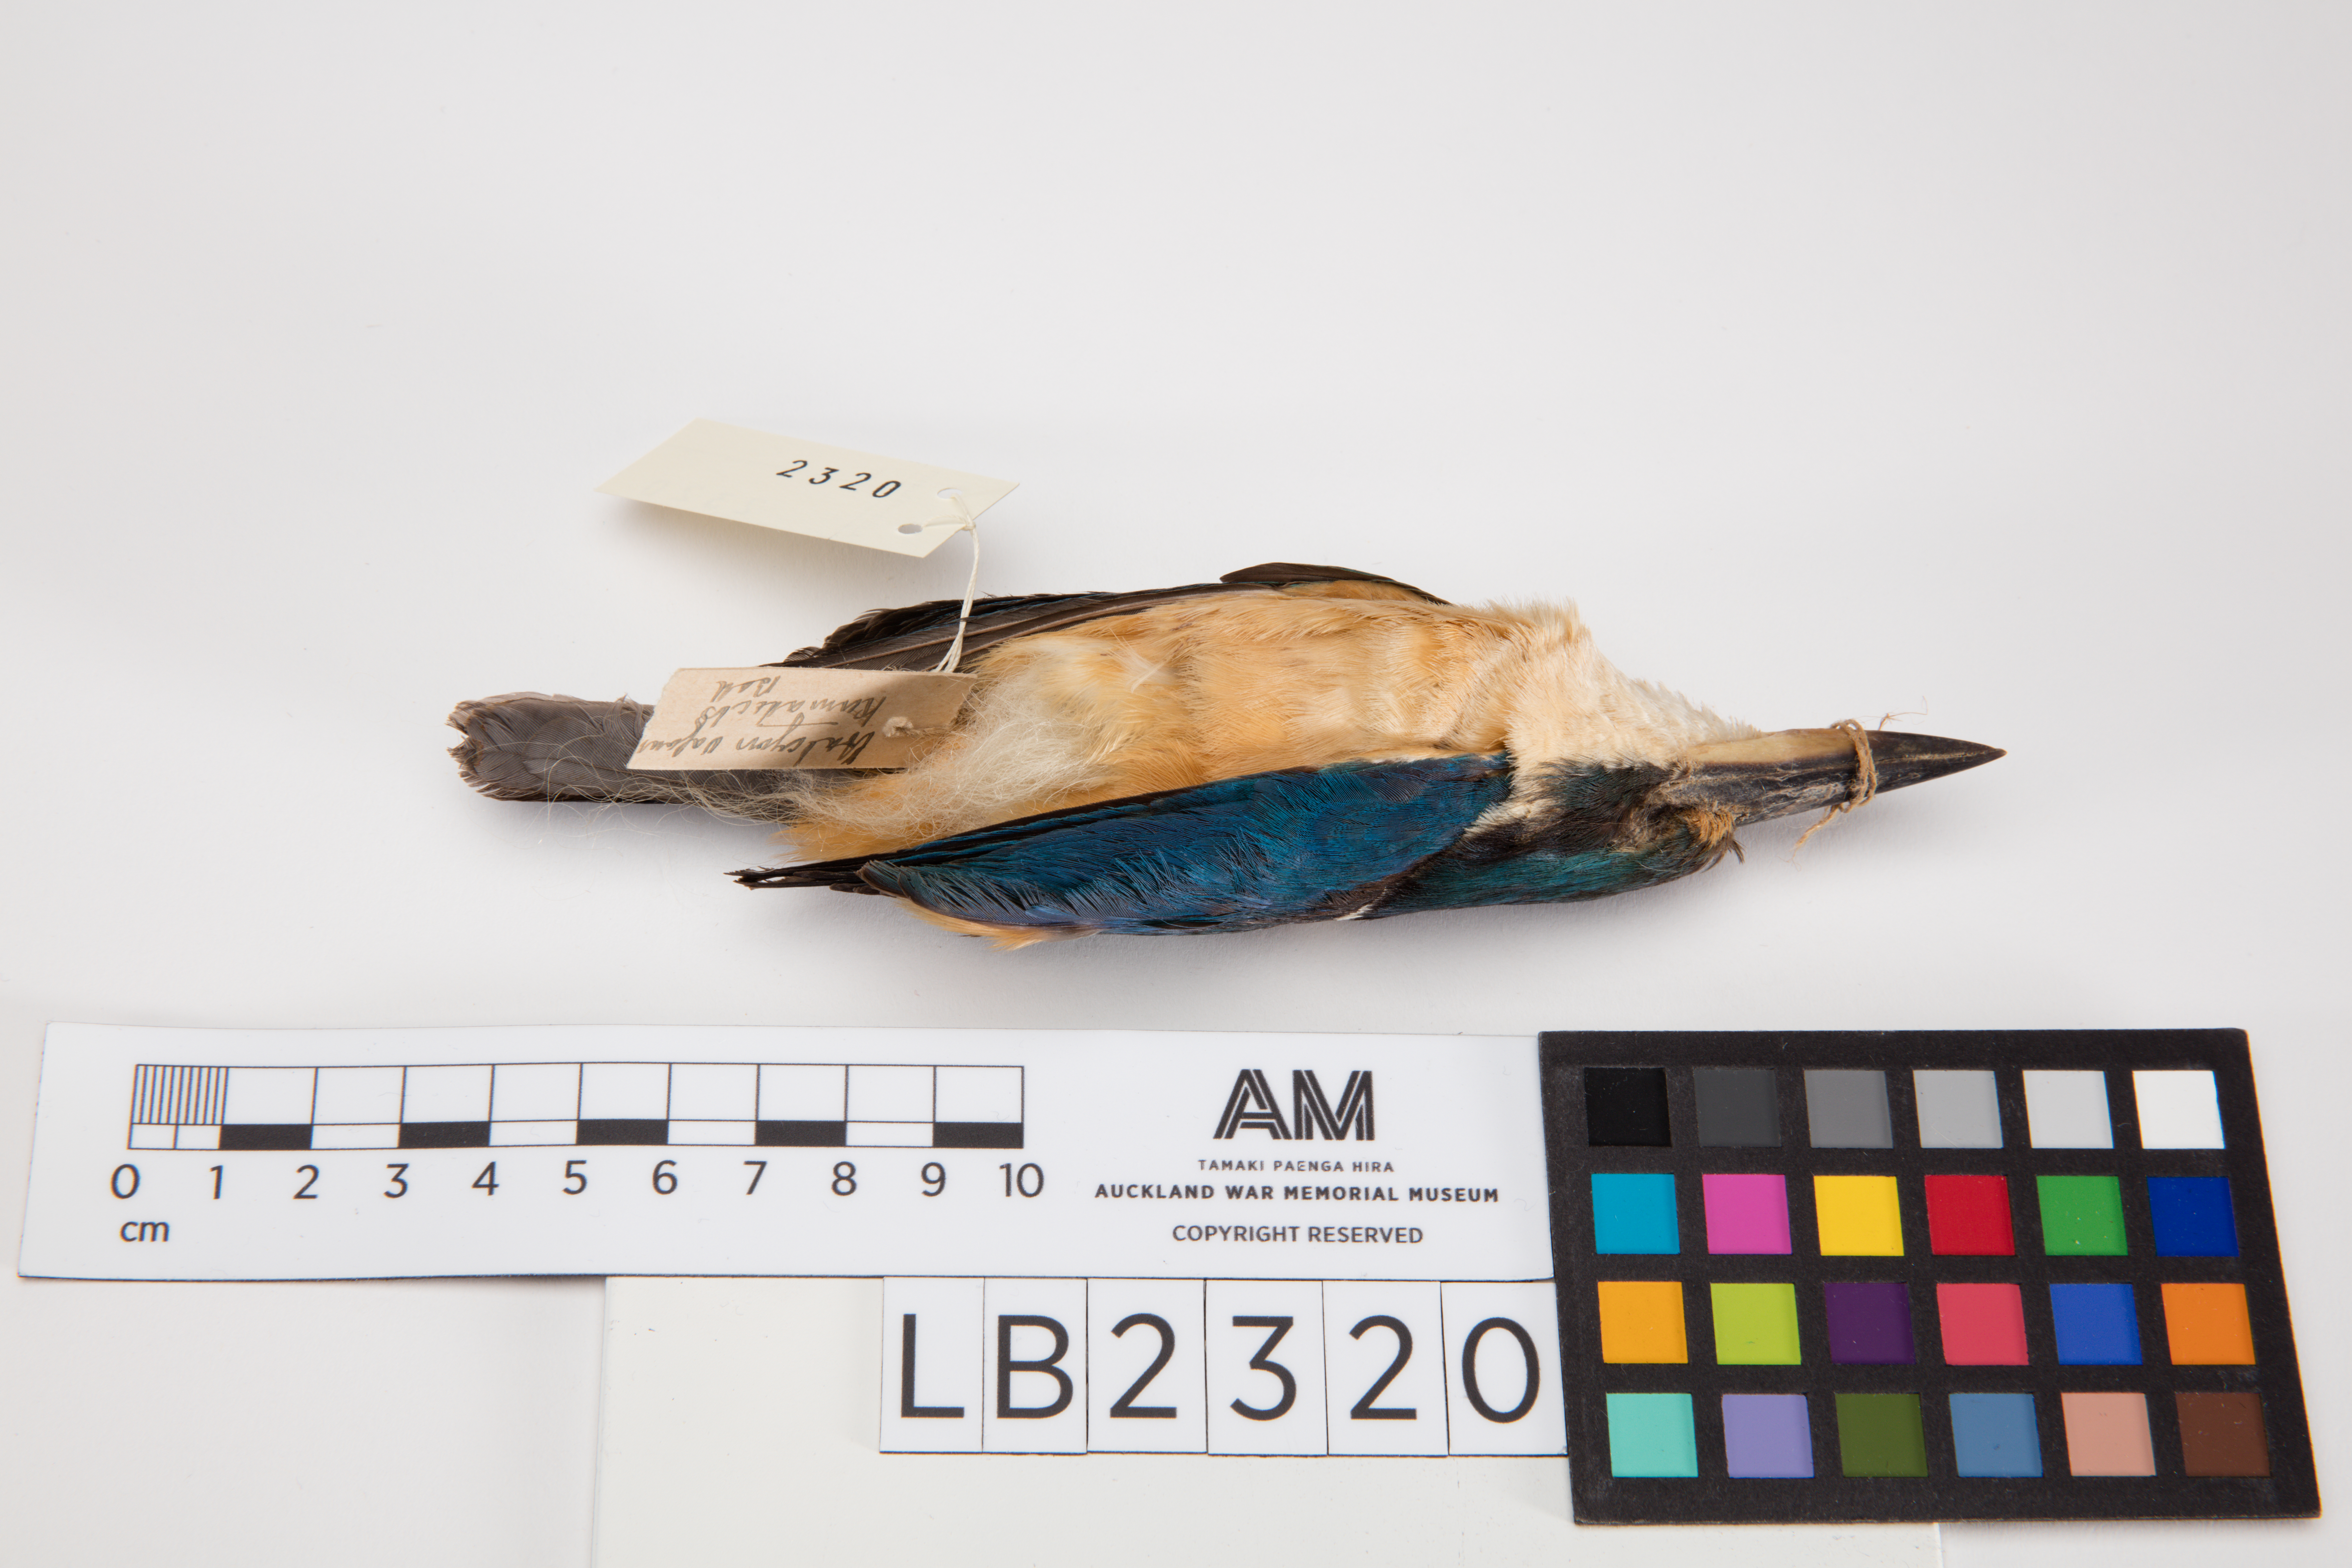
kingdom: Animalia
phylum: Chordata
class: Aves
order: Coraciiformes
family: Alcedinidae
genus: Todiramphus
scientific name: Todiramphus sanctus
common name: Sacred kingfisher
